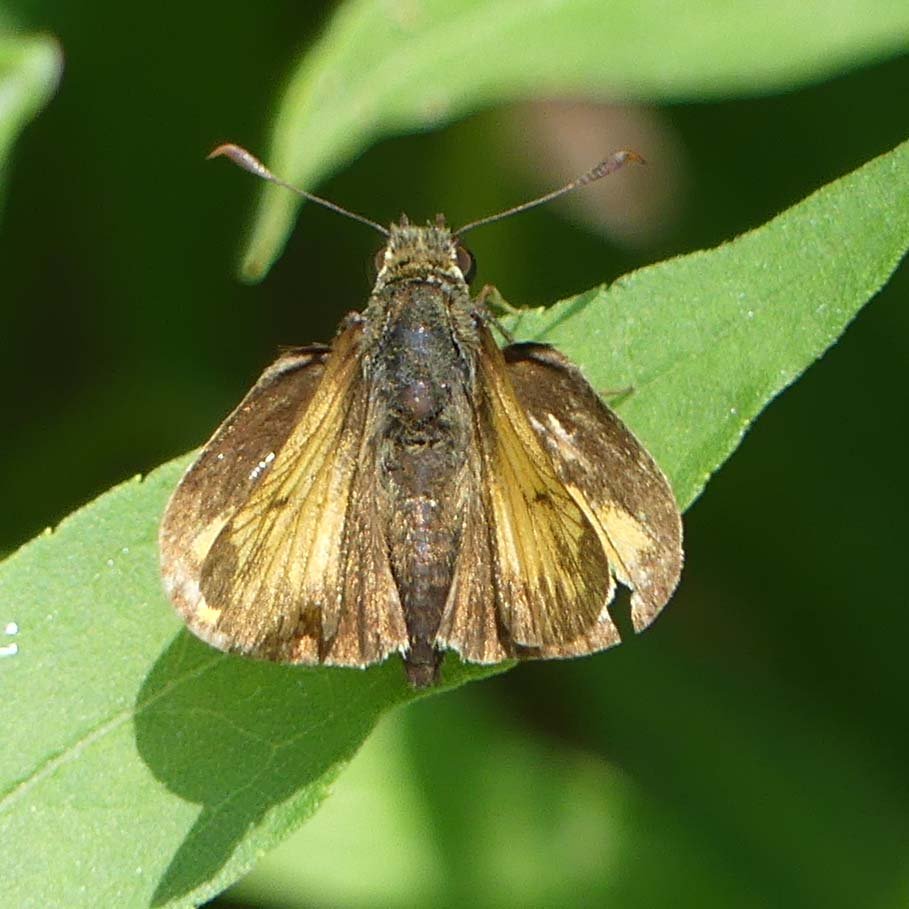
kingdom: Animalia
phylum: Arthropoda
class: Insecta
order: Lepidoptera
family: Hesperiidae
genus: Lon
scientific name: Lon hobomok
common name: Hobomok Skipper
